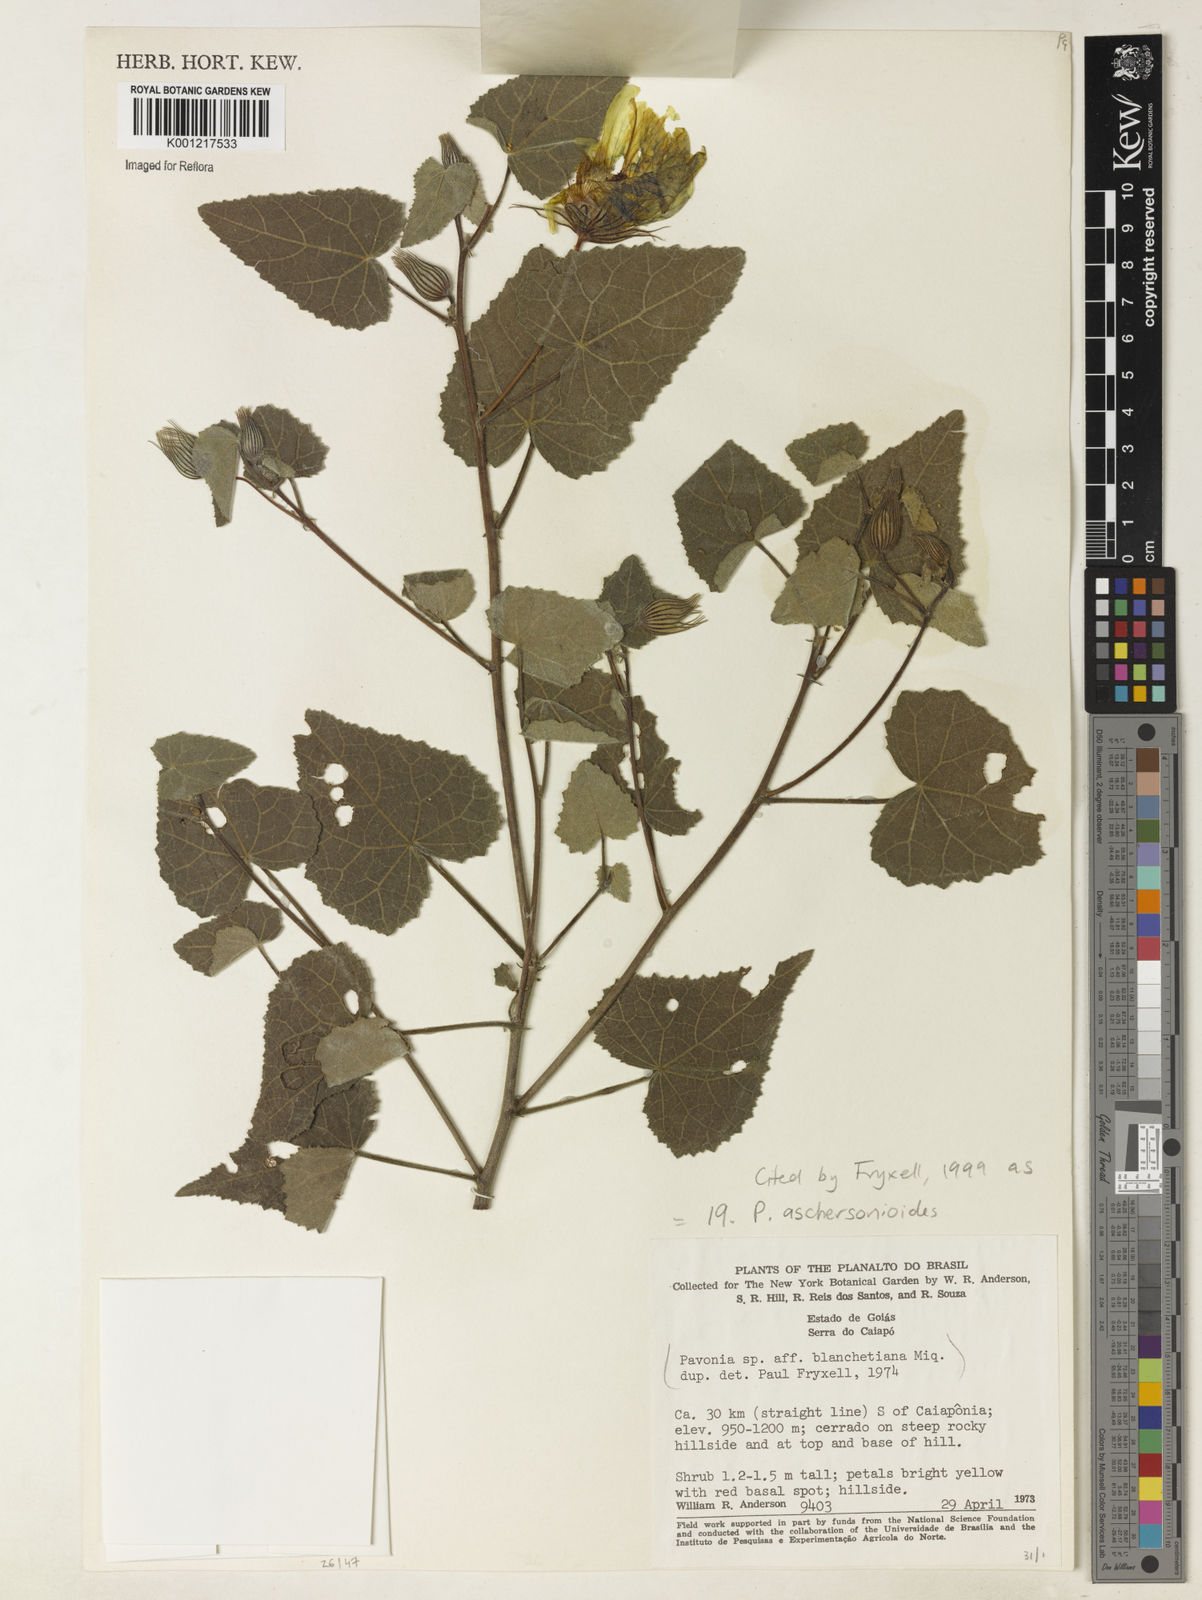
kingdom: Plantae
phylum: Tracheophyta
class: Magnoliopsida
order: Malvales
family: Malvaceae
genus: Pavonia
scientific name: Pavonia aschersonioides
